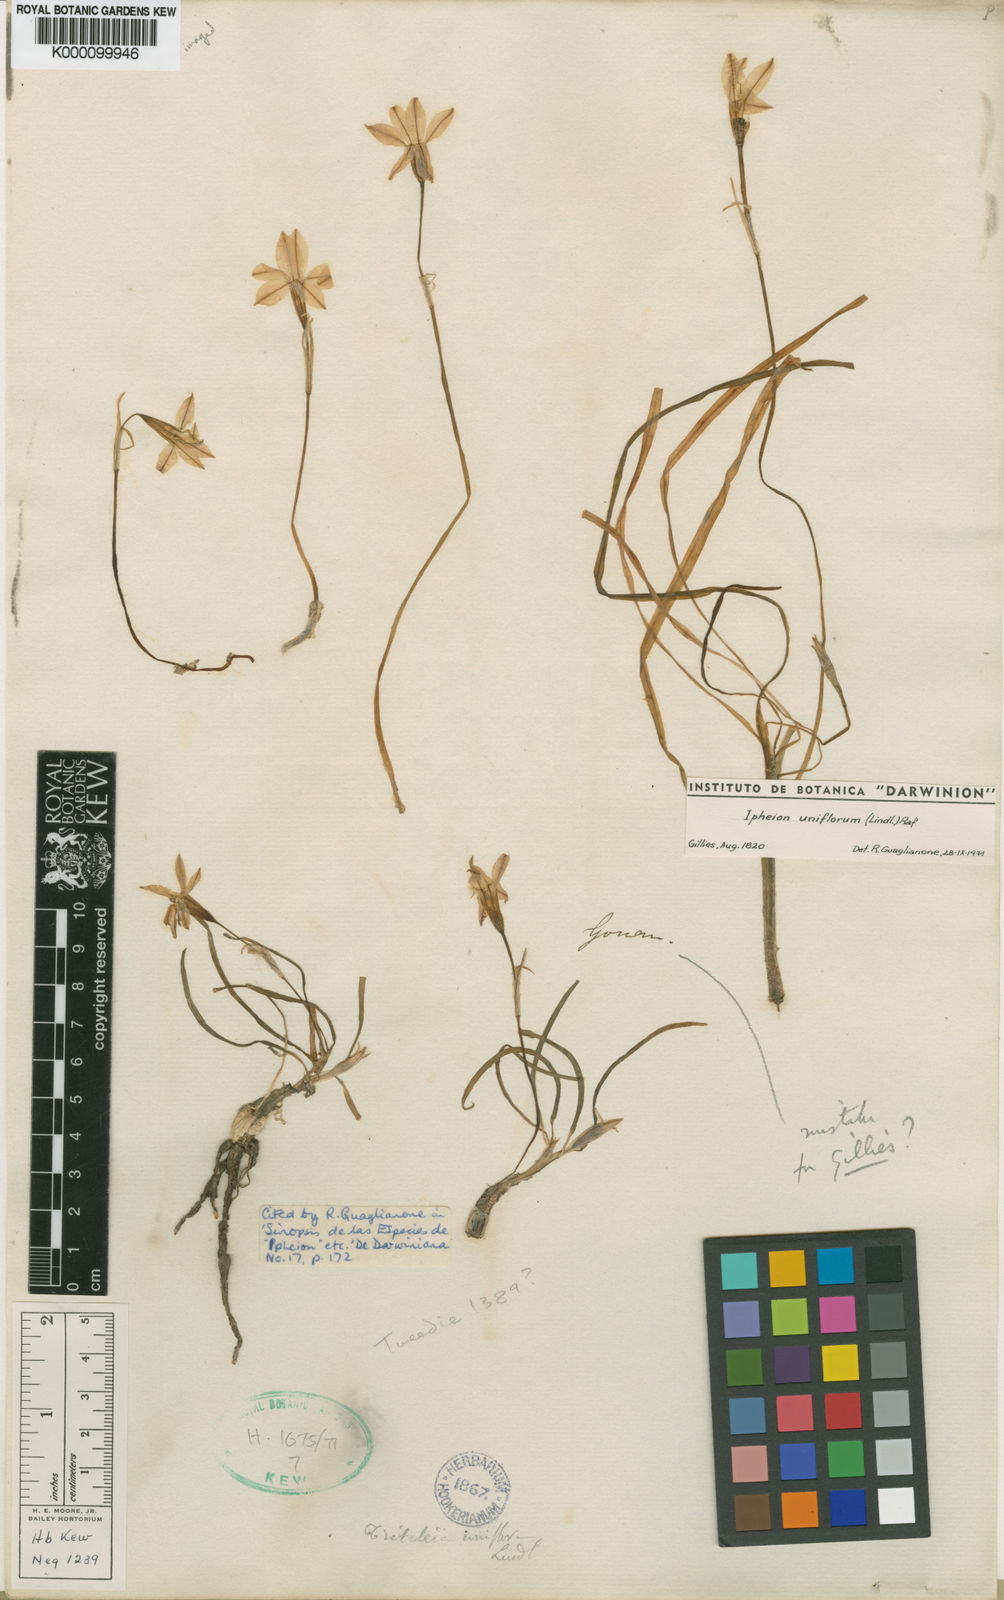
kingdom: Plantae
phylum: Tracheophyta
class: Liliopsida
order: Asparagales
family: Amaryllidaceae
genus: Ipheion
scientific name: Ipheion uniflorum
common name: Spring starflower
